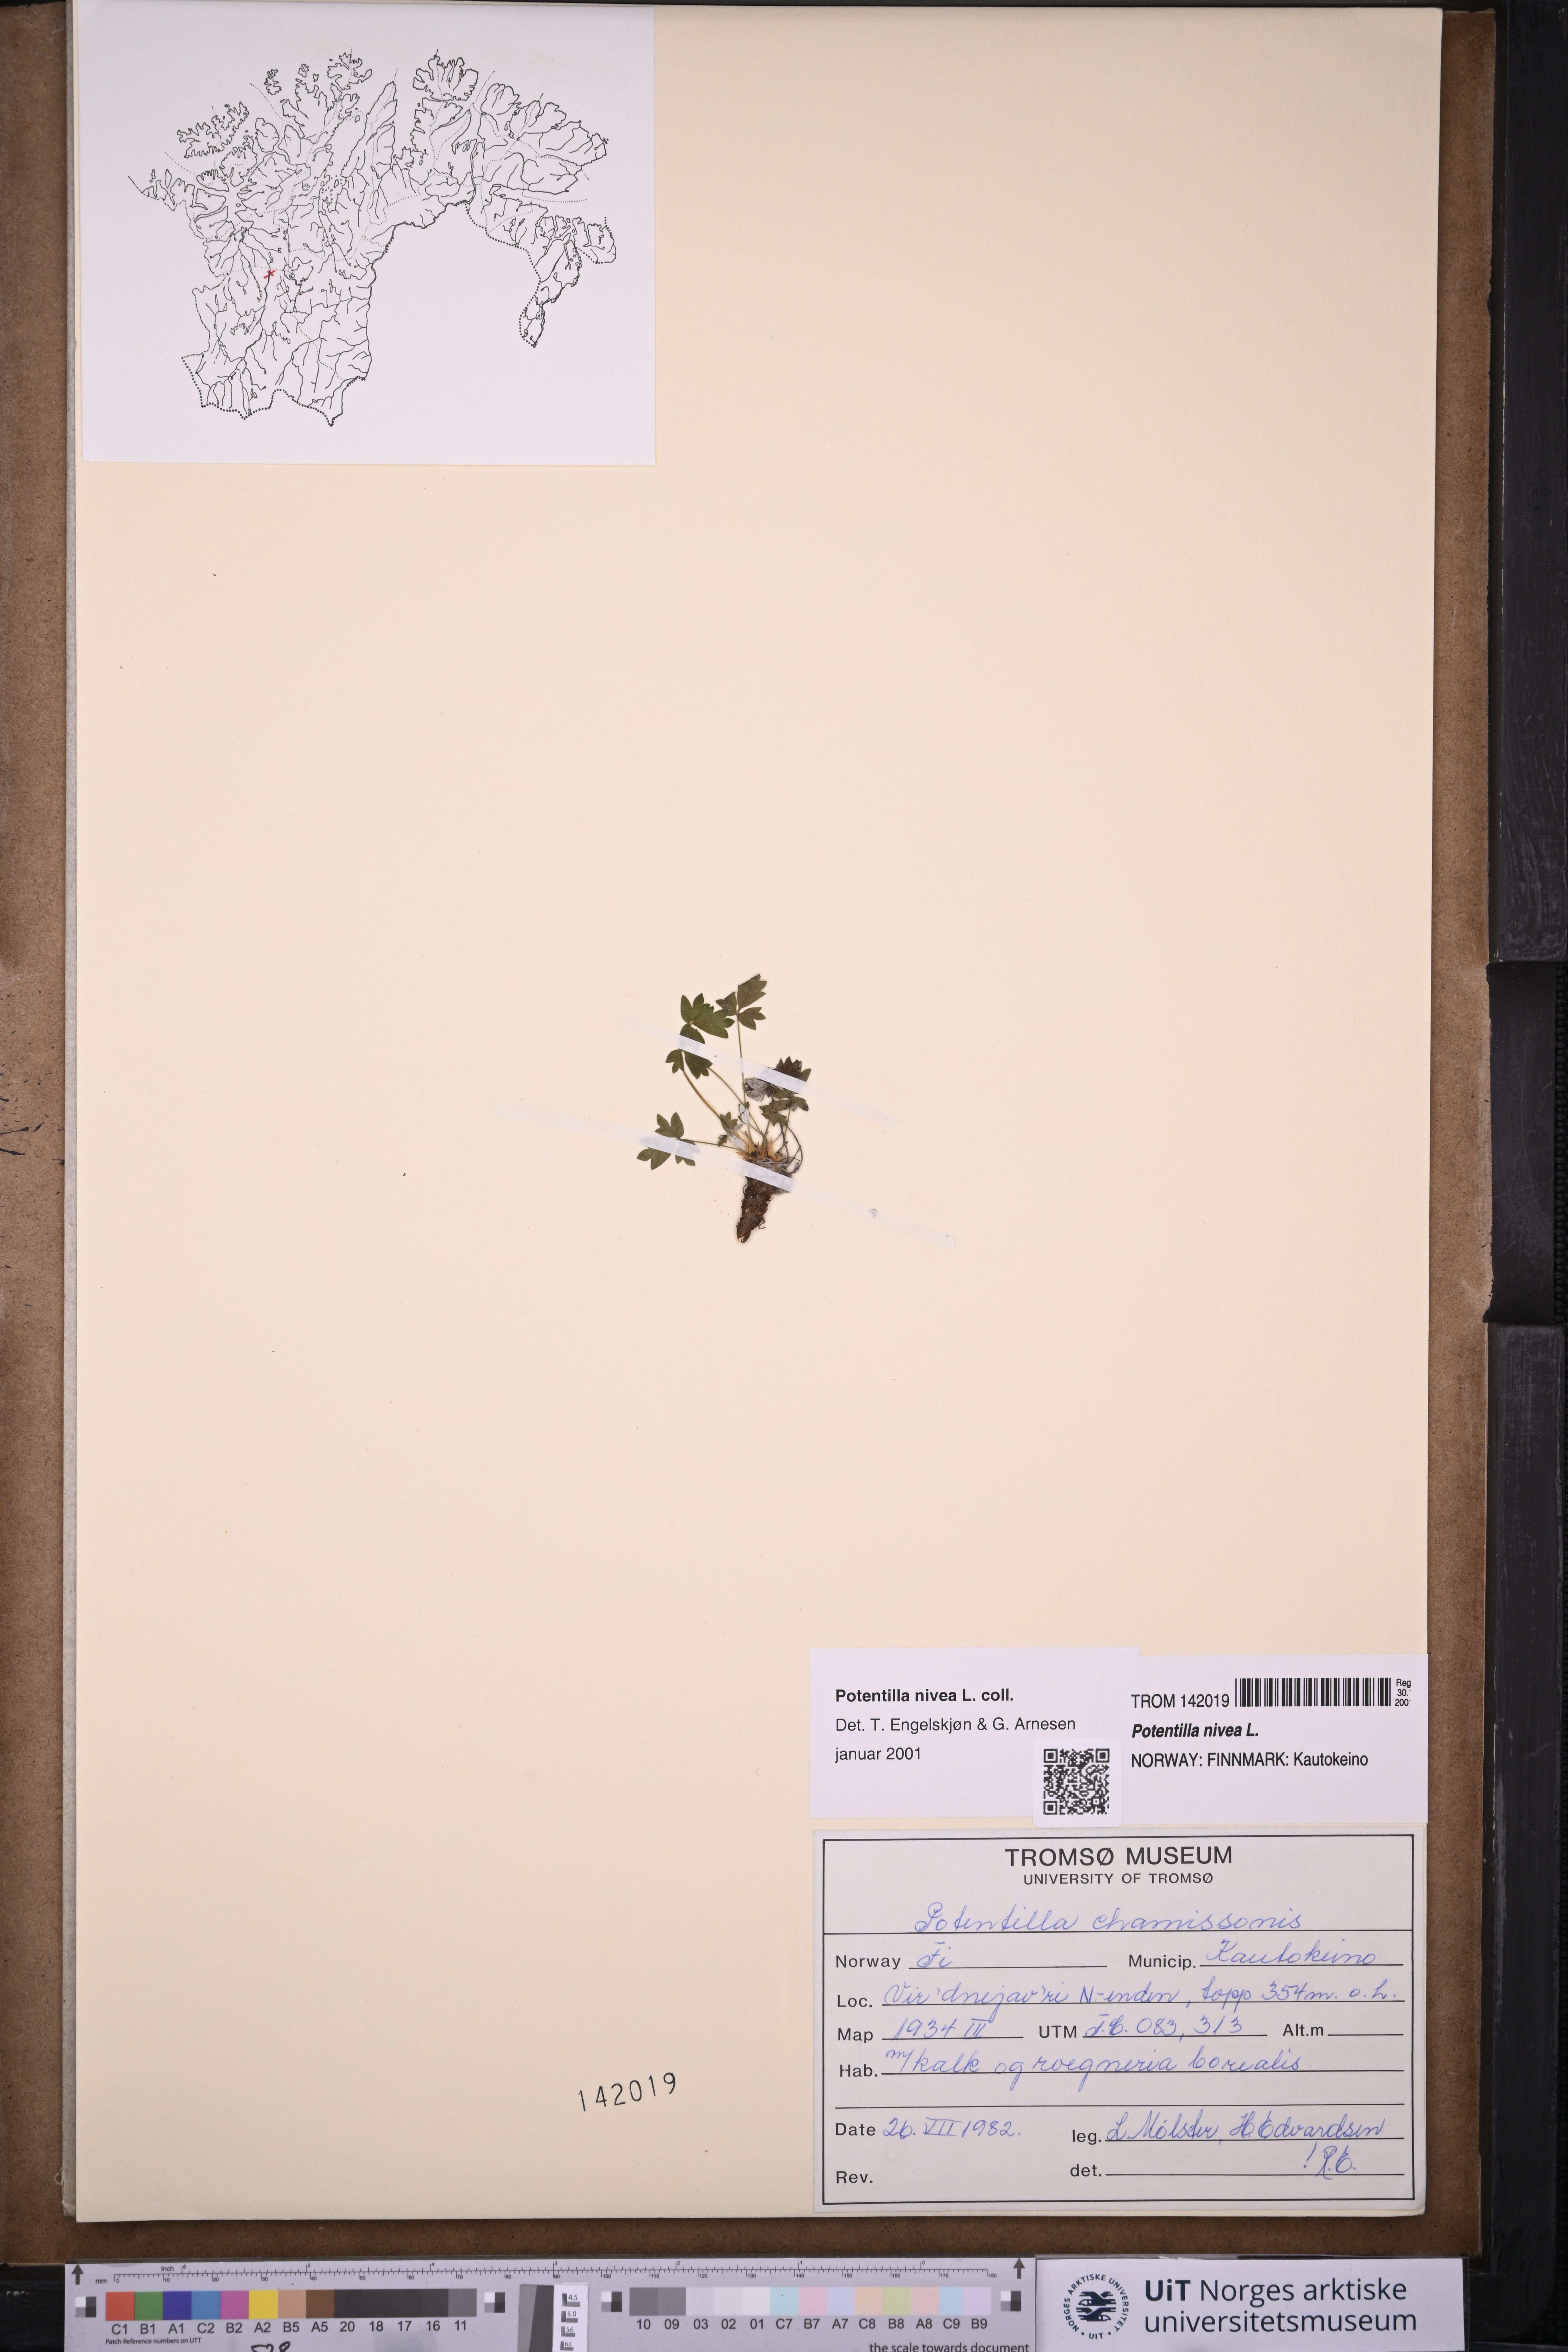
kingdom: Plantae
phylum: Tracheophyta
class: Magnoliopsida
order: Rosales
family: Rosaceae
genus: Potentilla
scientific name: Potentilla arenosa
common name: Bluff cinquefoil
